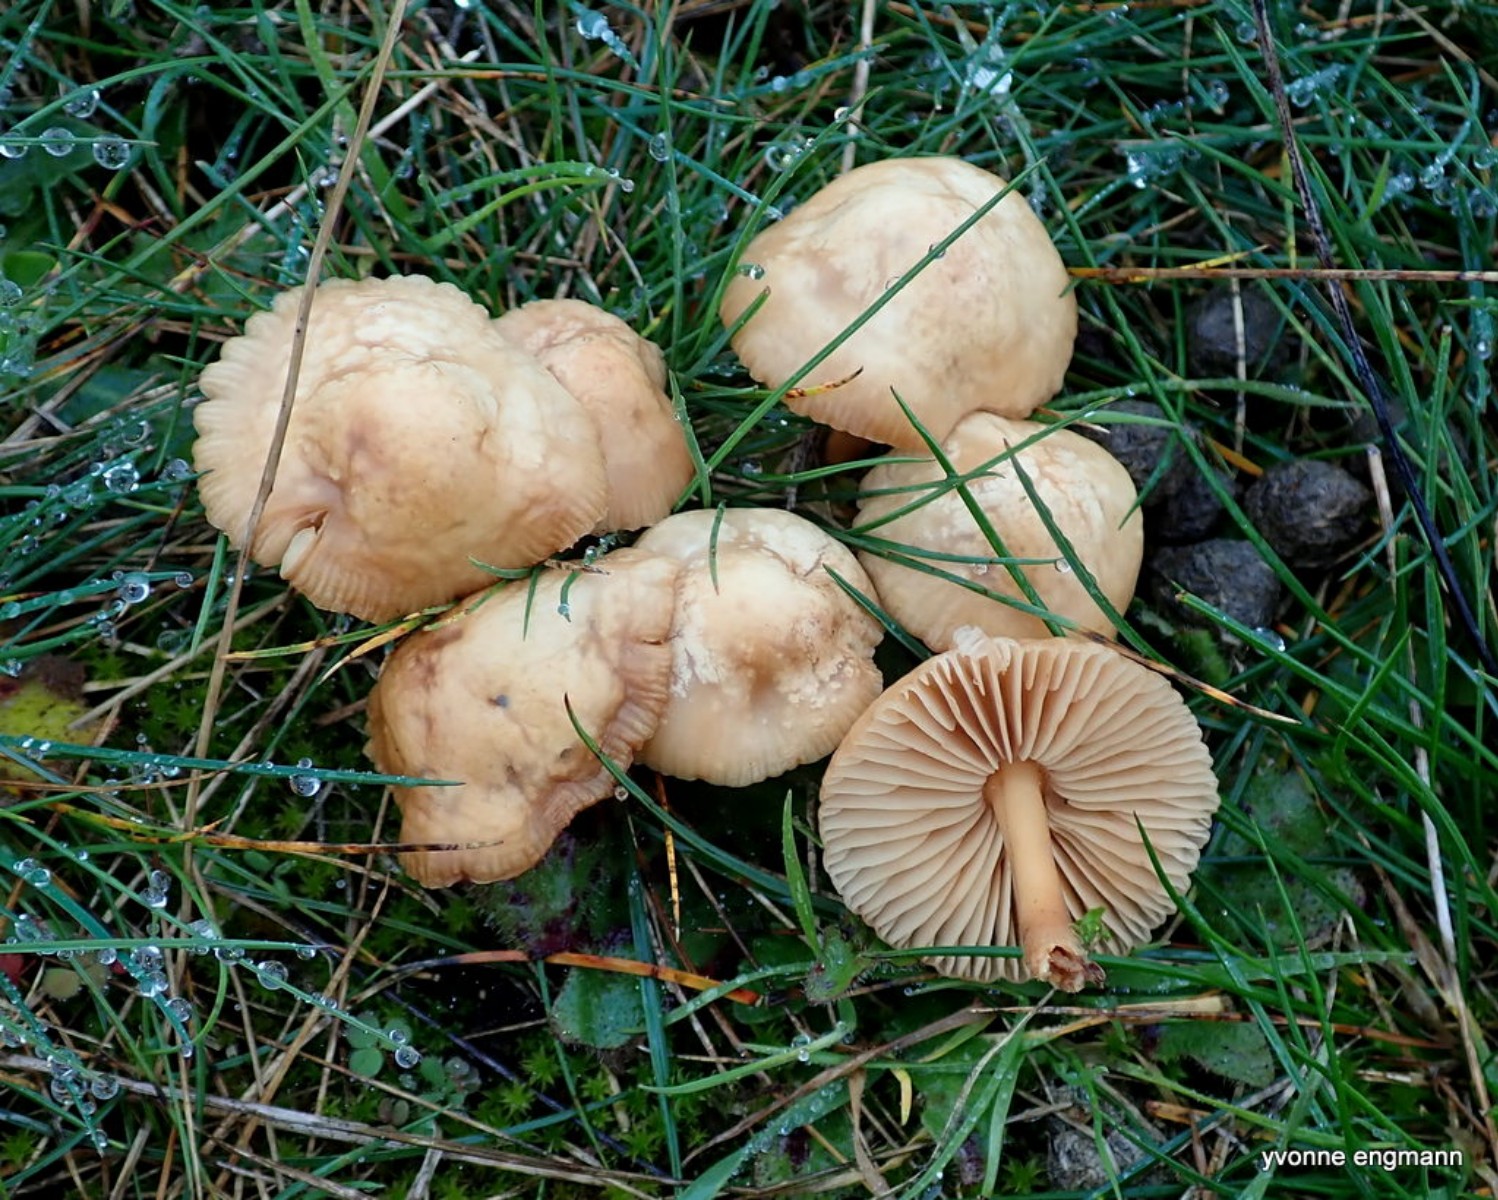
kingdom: Fungi
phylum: Basidiomycota
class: Agaricomycetes
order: Agaricales
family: Marasmiaceae
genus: Marasmius
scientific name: Marasmius oreades
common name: elledans-bruskhat
